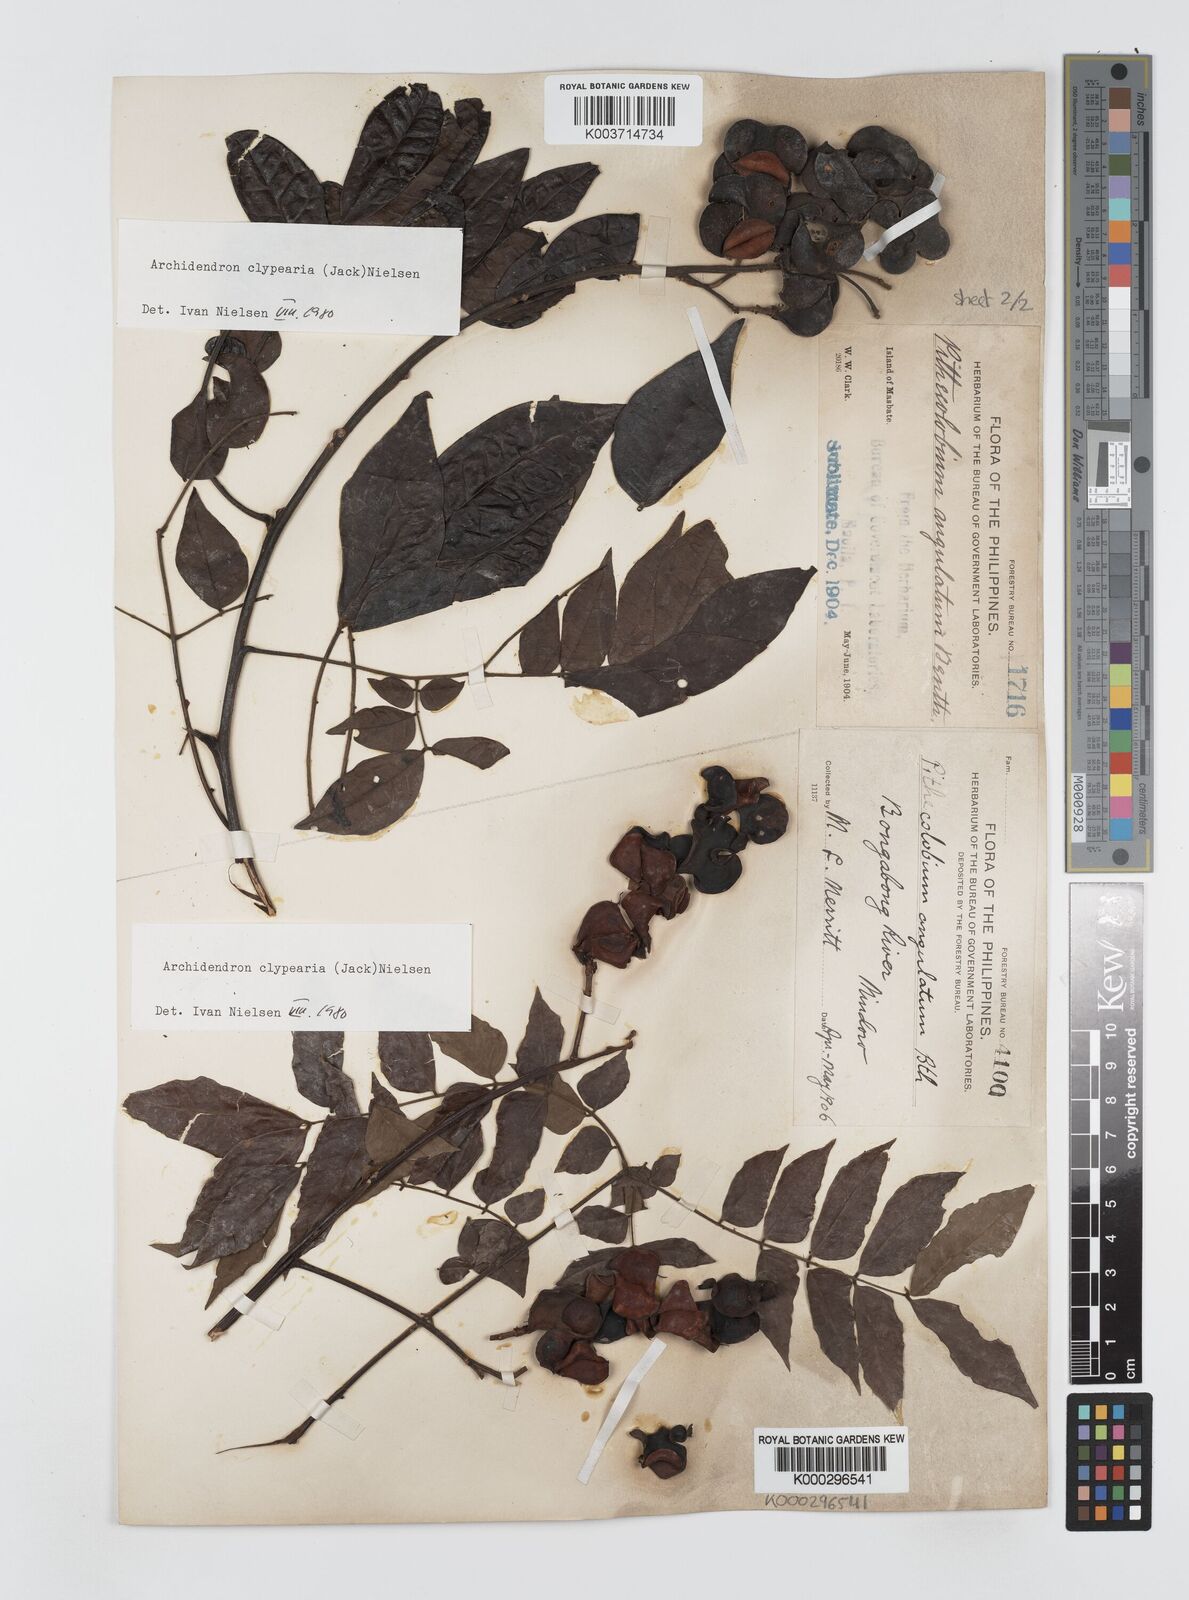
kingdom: Plantae
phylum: Tracheophyta
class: Magnoliopsida
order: Fabales
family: Fabaceae
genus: Archidendron
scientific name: Archidendron clypearia
